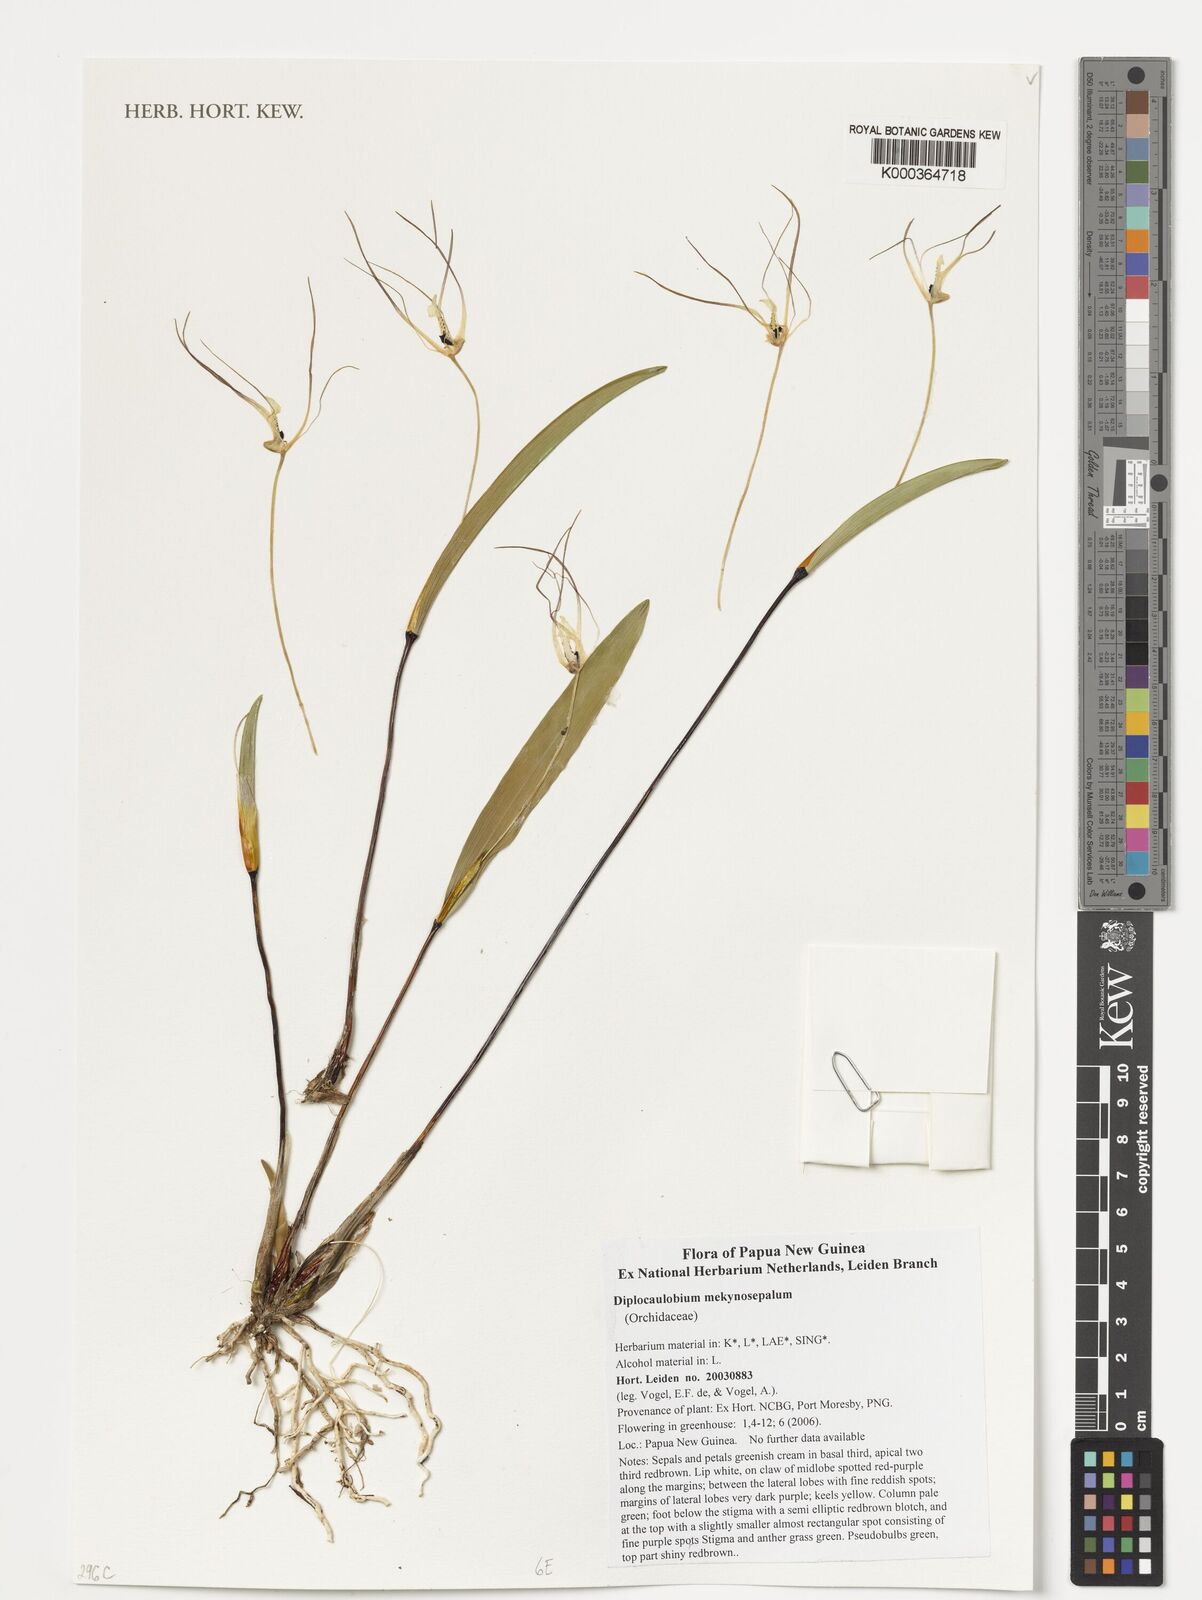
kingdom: Plantae
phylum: Tracheophyta
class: Liliopsida
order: Asparagales
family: Orchidaceae
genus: Dendrobium
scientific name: Dendrobium mekynosepalum
